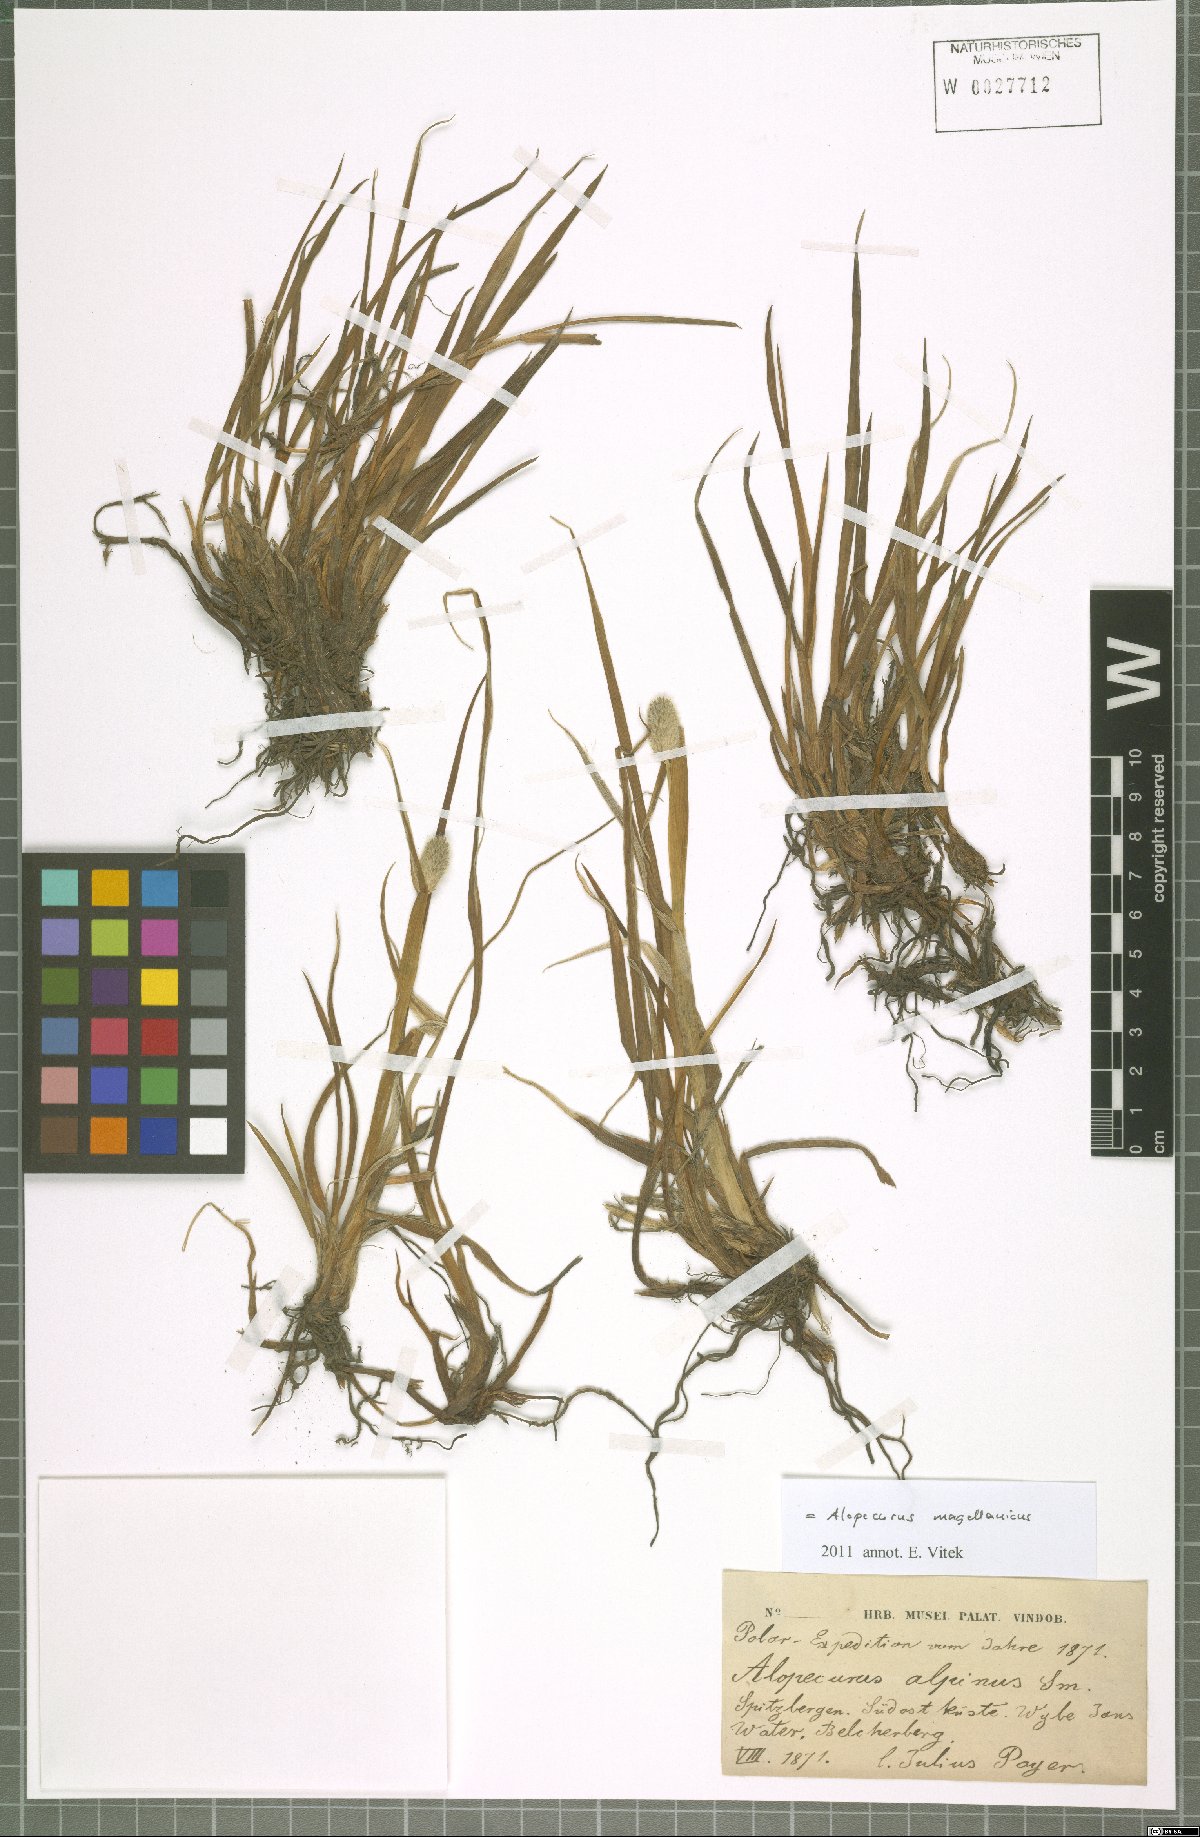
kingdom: Plantae
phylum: Tracheophyta
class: Liliopsida
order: Poales
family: Poaceae
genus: Alopecurus
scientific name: Alopecurus magellanicus
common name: Alpine foxtail
